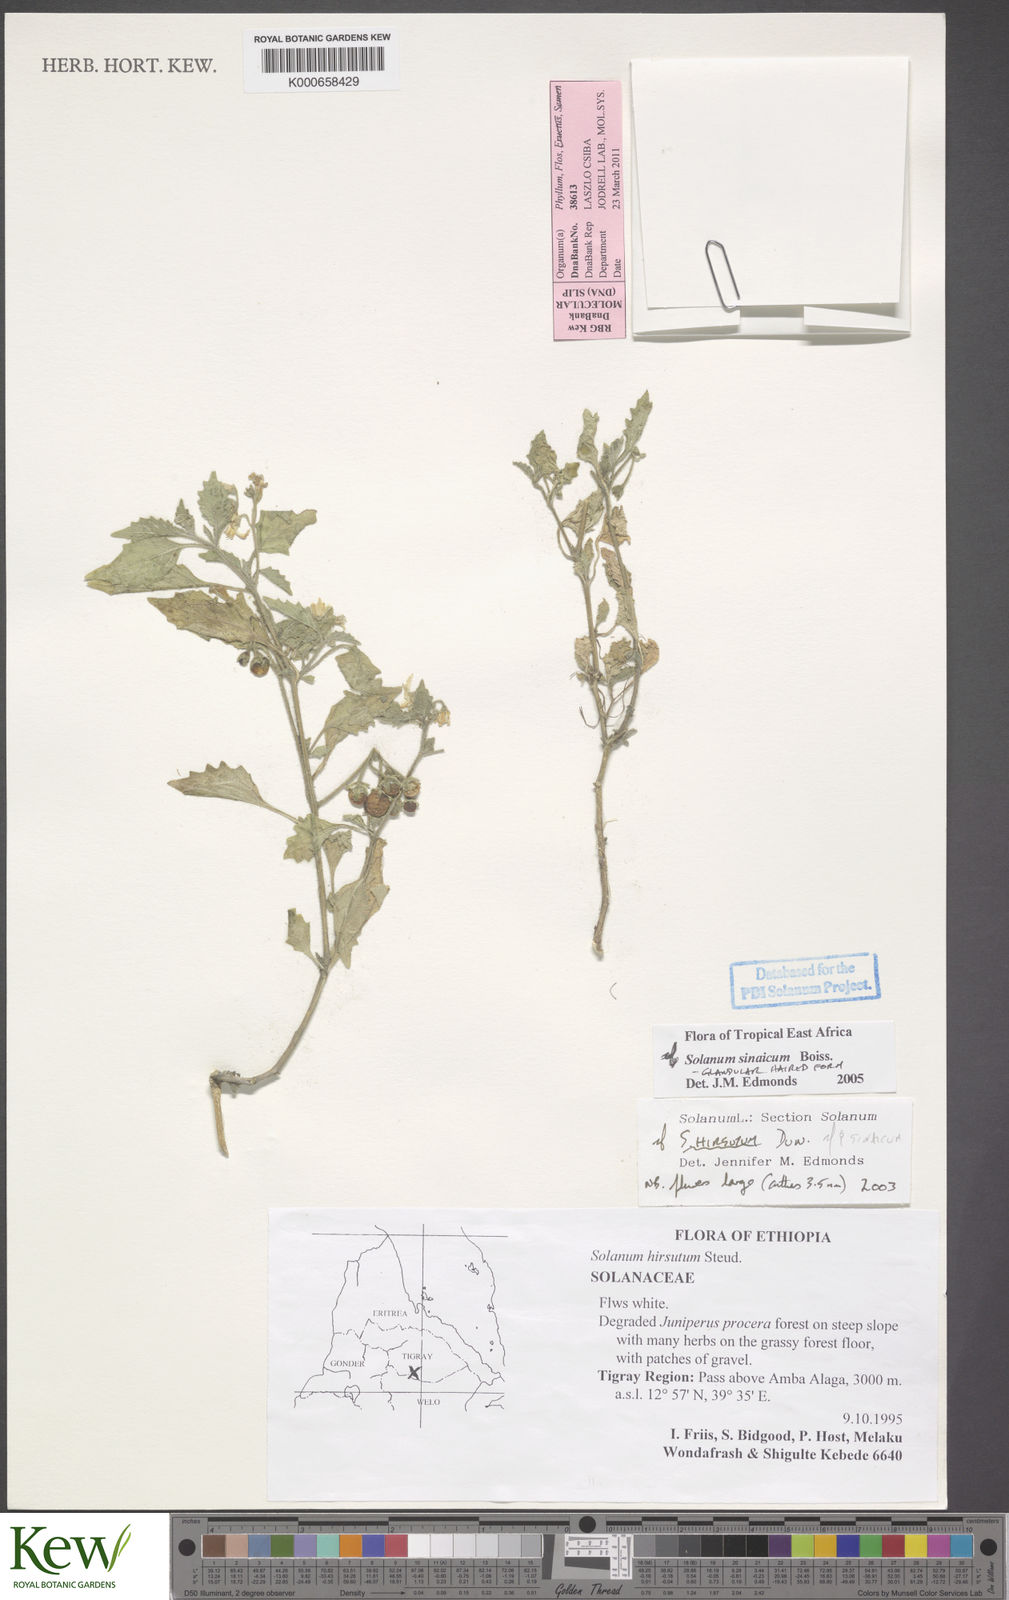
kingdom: Plantae
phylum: Tracheophyta
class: Magnoliopsida
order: Solanales
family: Solanaceae
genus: Solanum
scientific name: Solanum villosum
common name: Red nightshade
